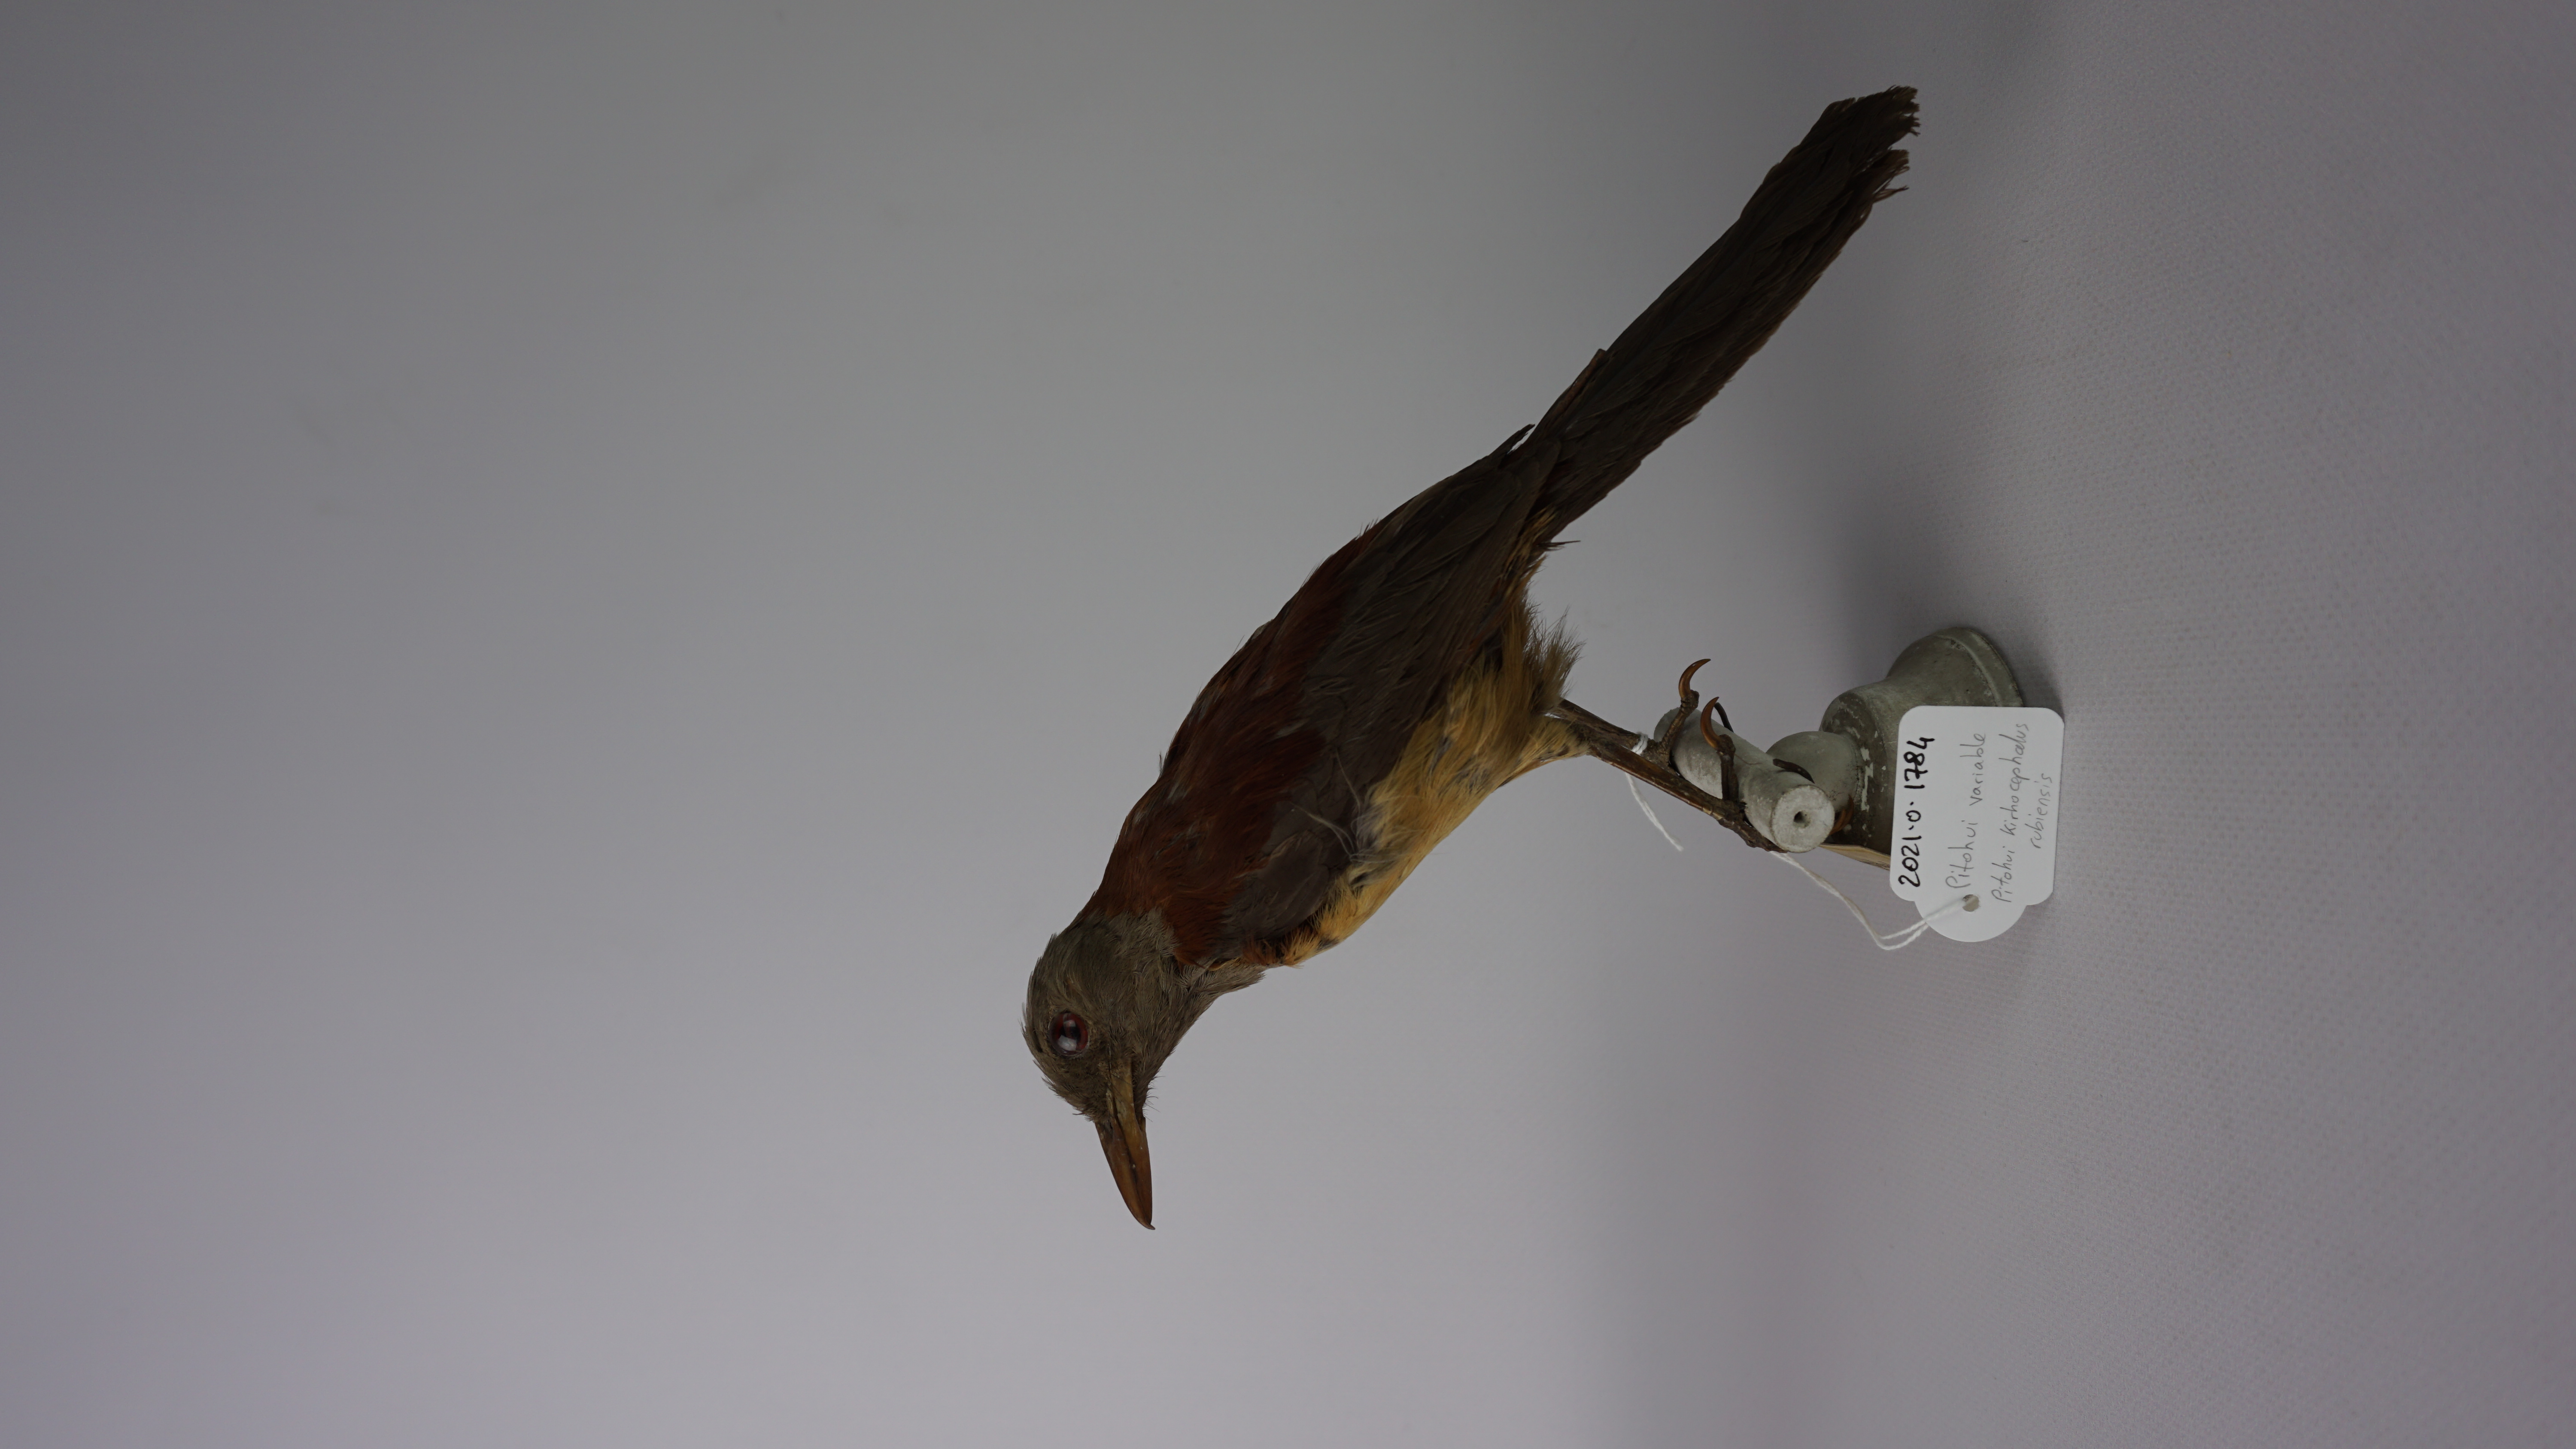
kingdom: Animalia
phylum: Chordata
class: Aves
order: Passeriformes
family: Oriolidae
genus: Pitohui
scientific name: Pitohui kirhocephalus
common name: Variable pitohui
